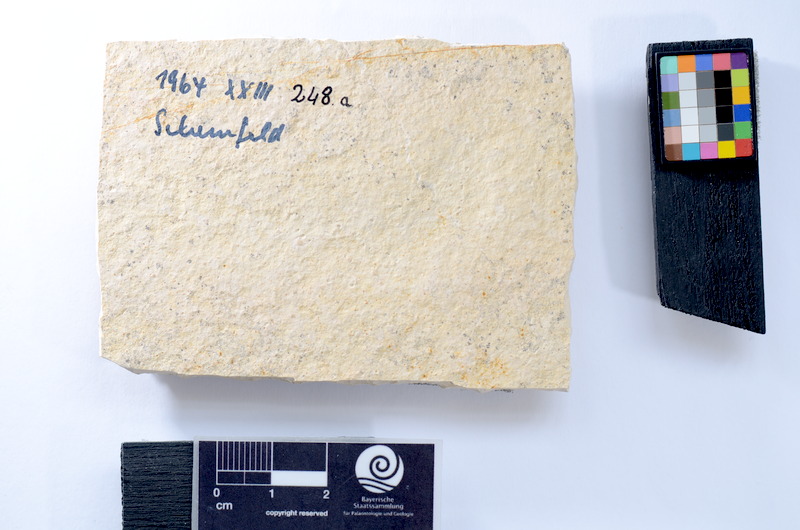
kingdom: Animalia
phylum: Chordata
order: Salmoniformes
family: Orthogonikleithridae
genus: Leptolepides
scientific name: Leptolepides
